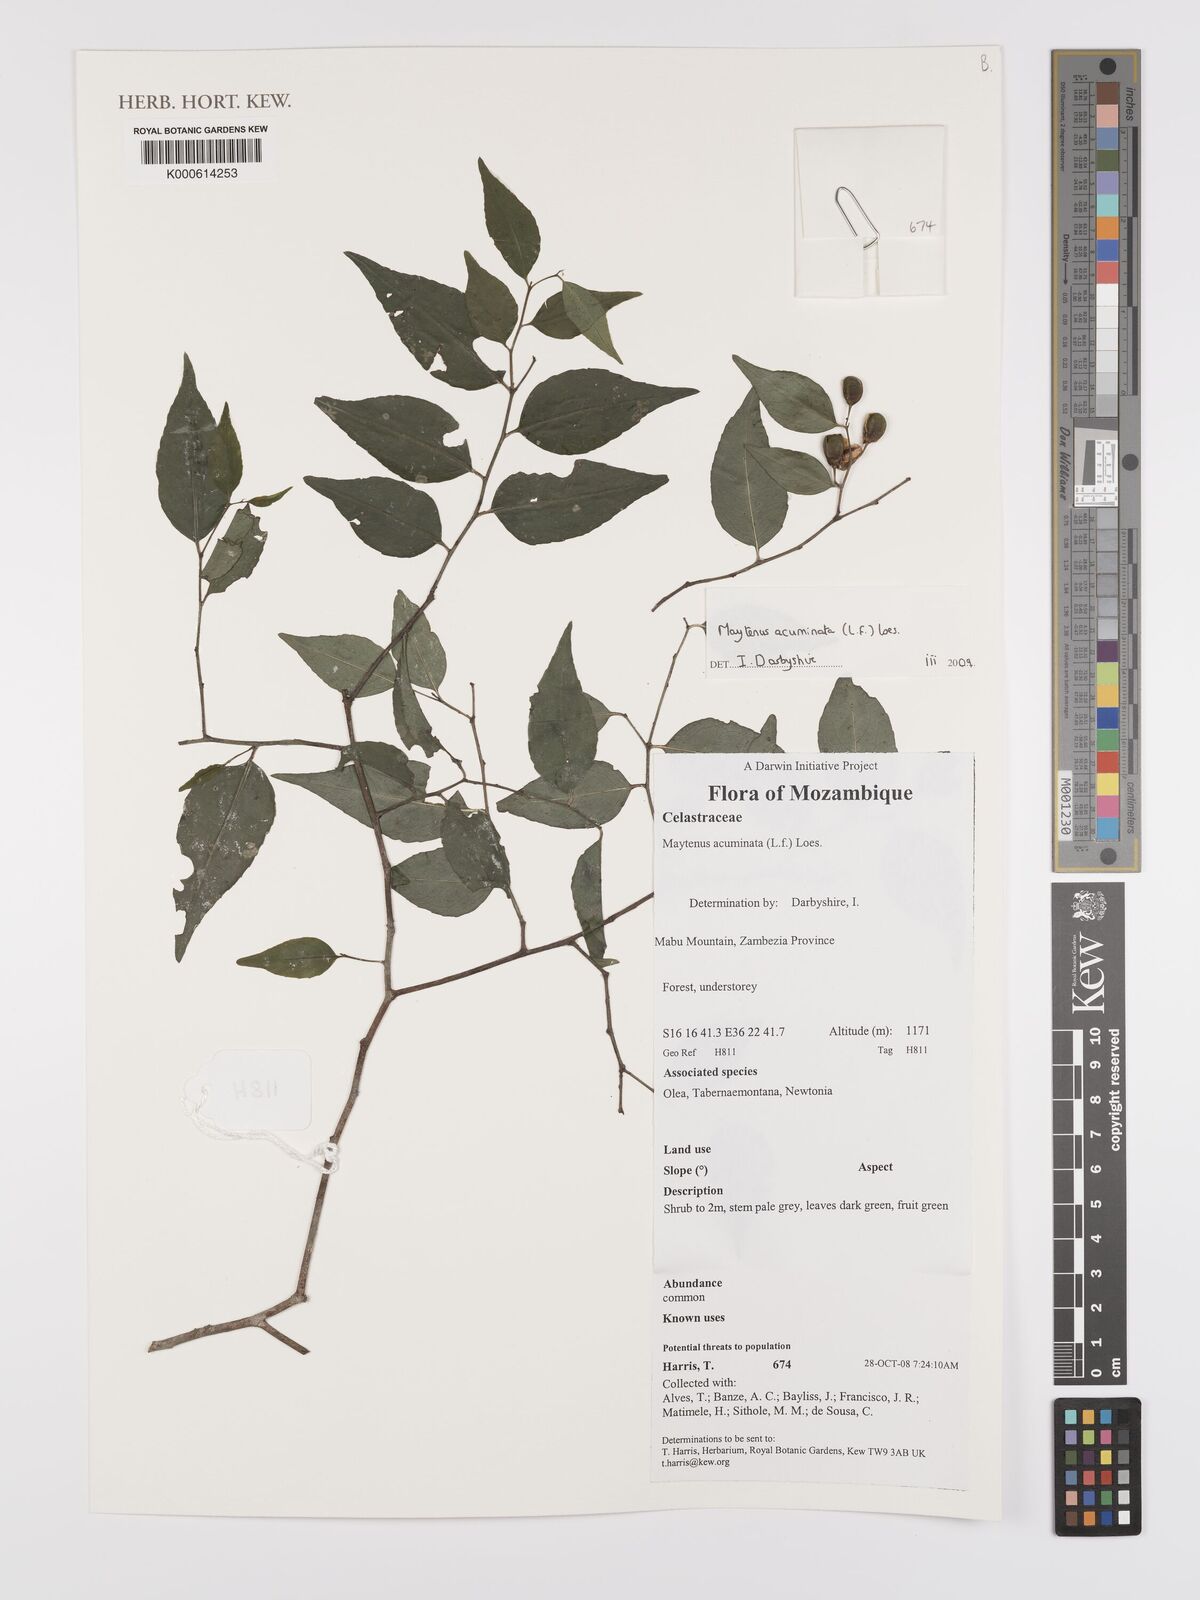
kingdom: Plantae
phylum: Tracheophyta
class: Magnoliopsida
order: Celastrales
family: Celastraceae
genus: Gymnosporia
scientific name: Gymnosporia acuminata
